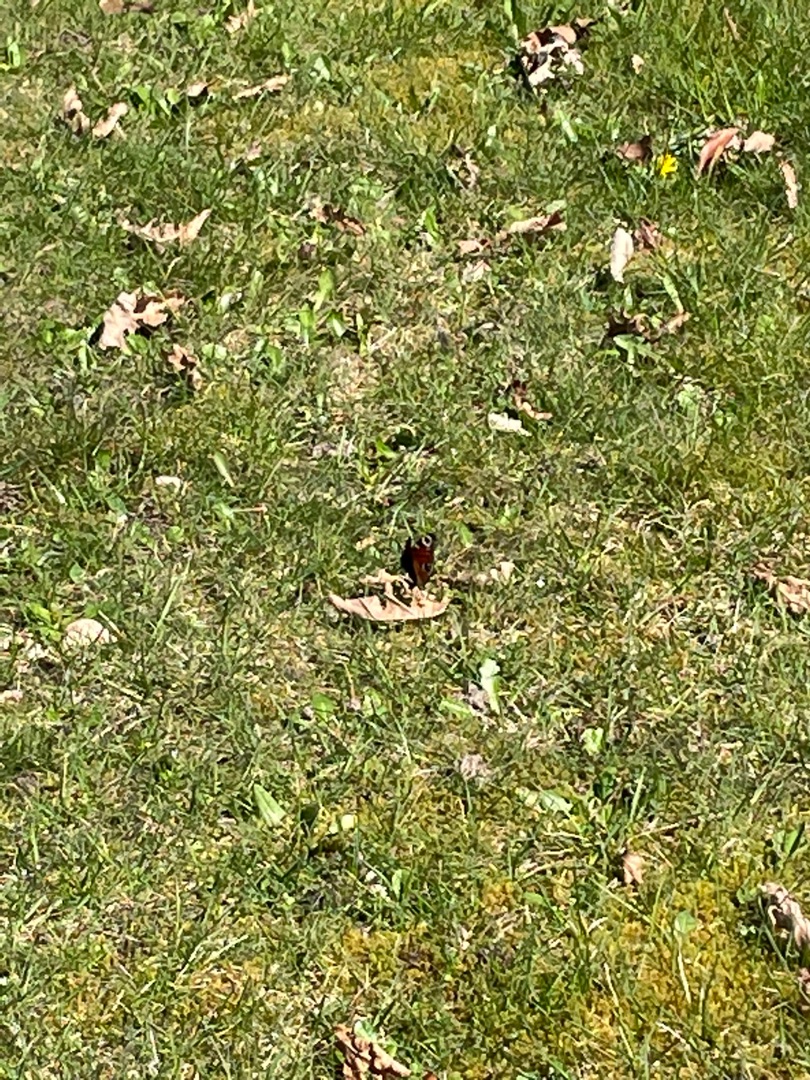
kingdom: Animalia
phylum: Arthropoda
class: Insecta
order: Lepidoptera
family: Nymphalidae
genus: Aglais
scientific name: Aglais io
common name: Dagpåfugleøje
